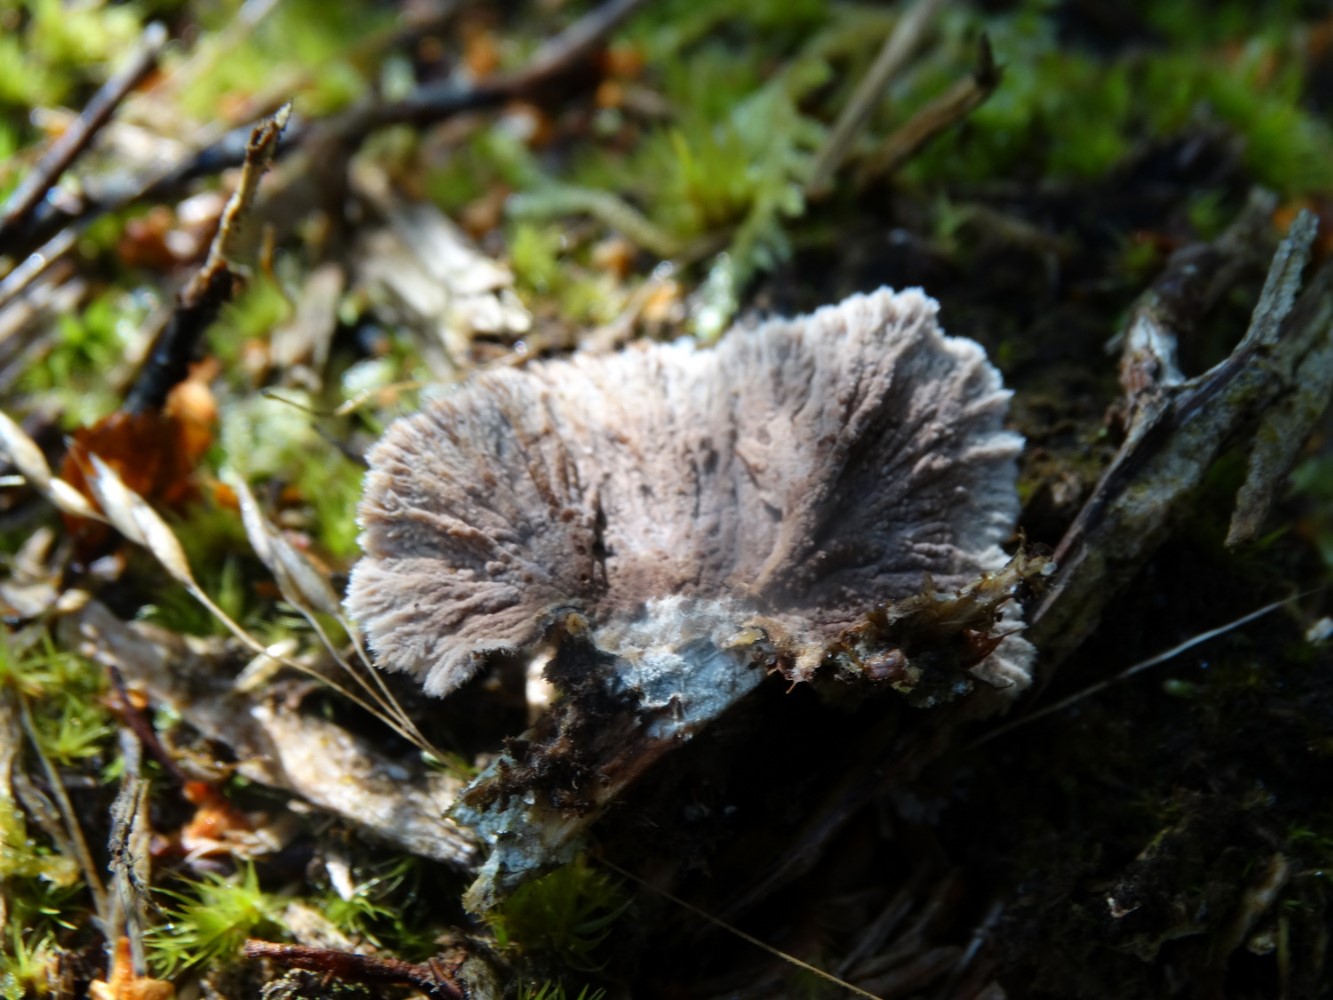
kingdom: Fungi
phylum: Basidiomycota
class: Agaricomycetes
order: Thelephorales
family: Thelephoraceae
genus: Thelephora
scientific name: Thelephora terrestris
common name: fliget frynsesvamp
